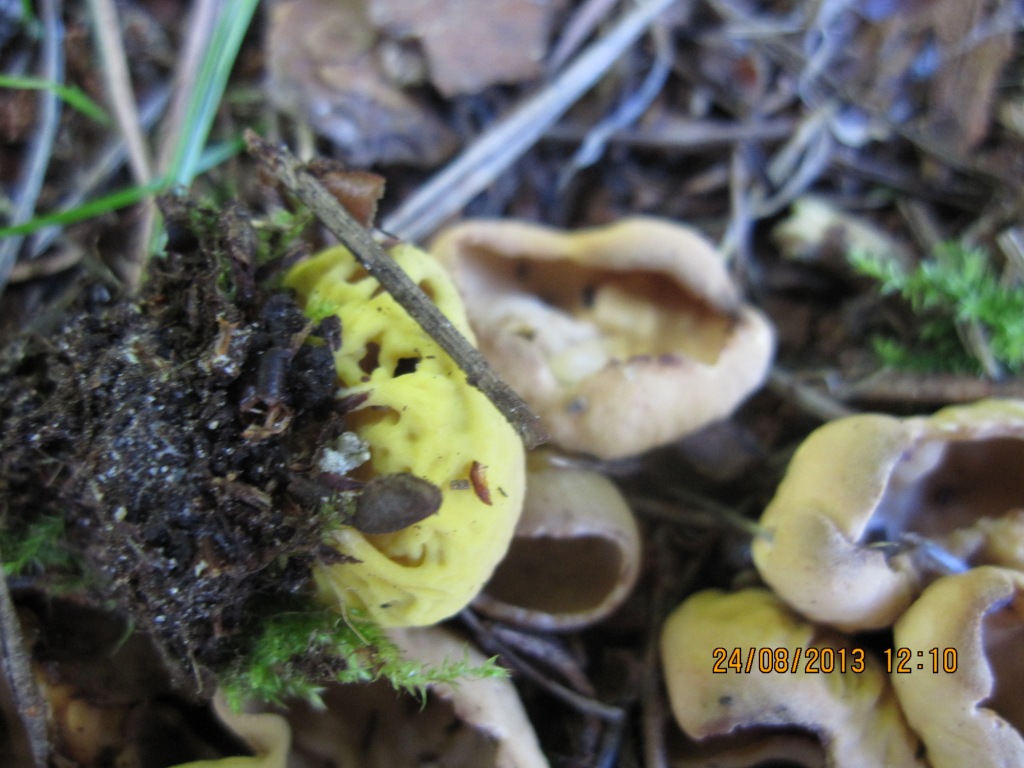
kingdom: Fungi
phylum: Ascomycota
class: Pezizomycetes
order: Pezizales
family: Otideaceae
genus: Otidea
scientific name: Otidea phlebophora
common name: året ørebæger
